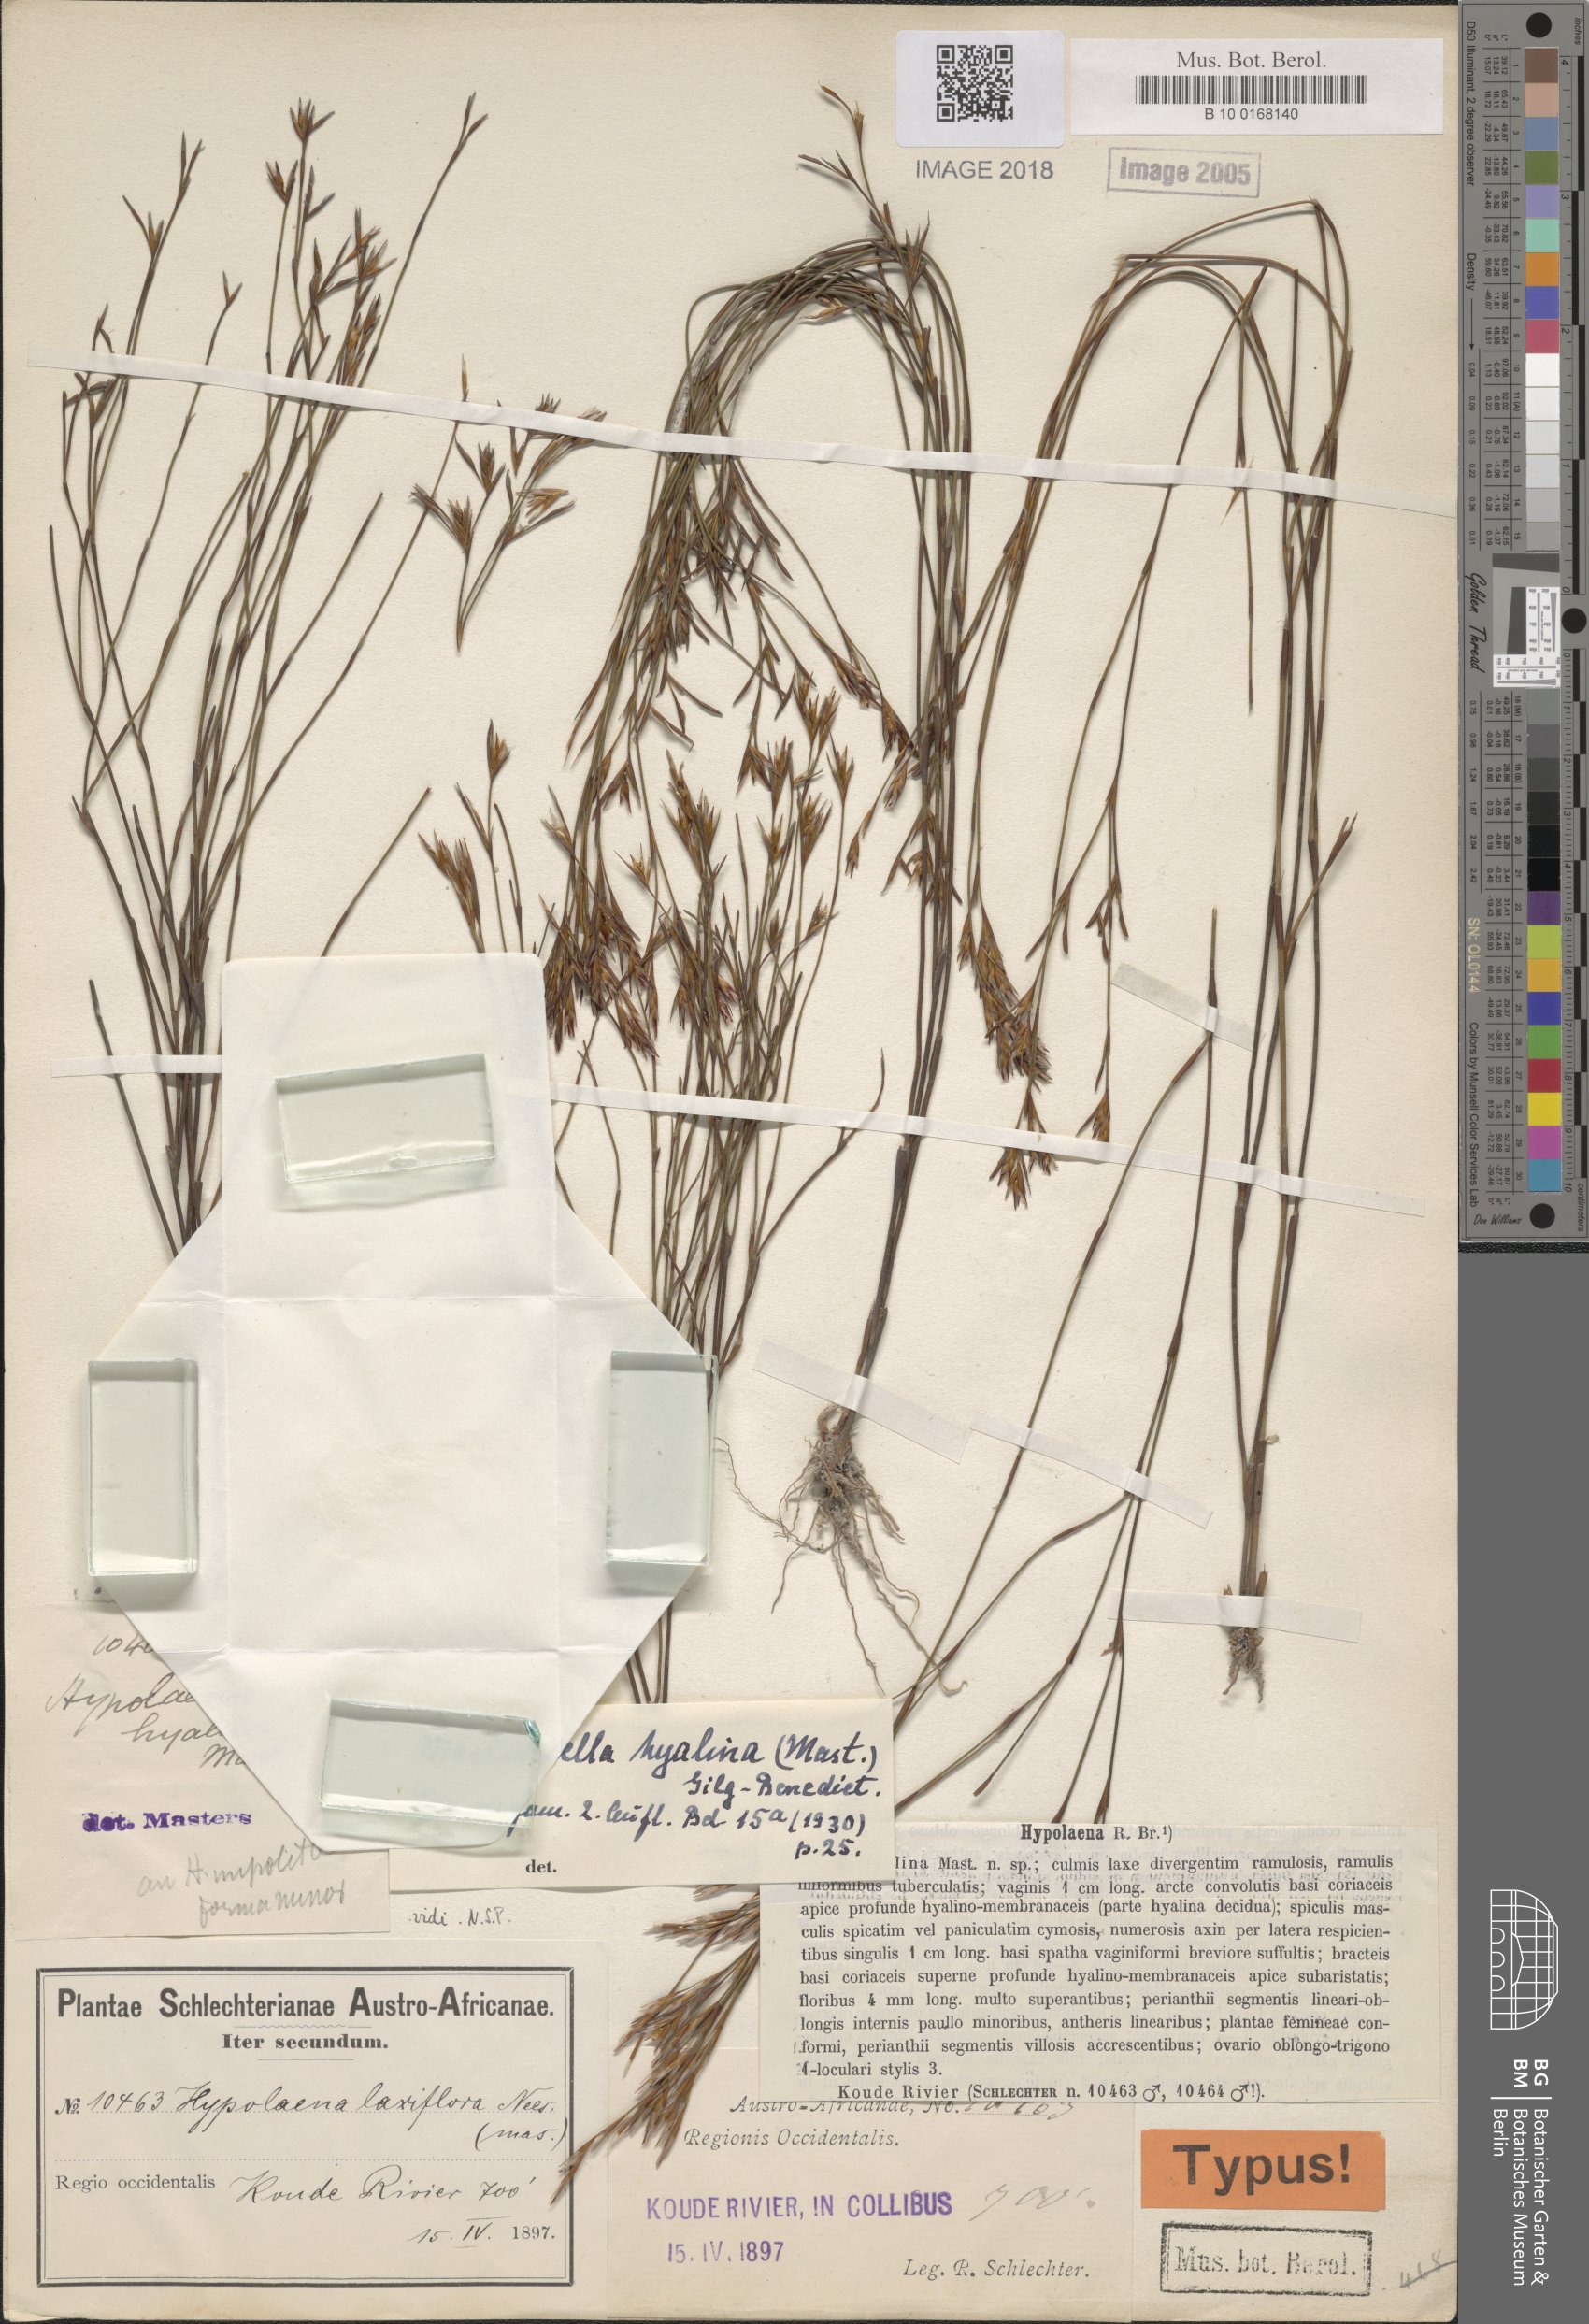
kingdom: Plantae
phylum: Tracheophyta
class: Liliopsida
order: Poales
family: Restionaceae
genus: Restio
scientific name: Restio hyalinus
